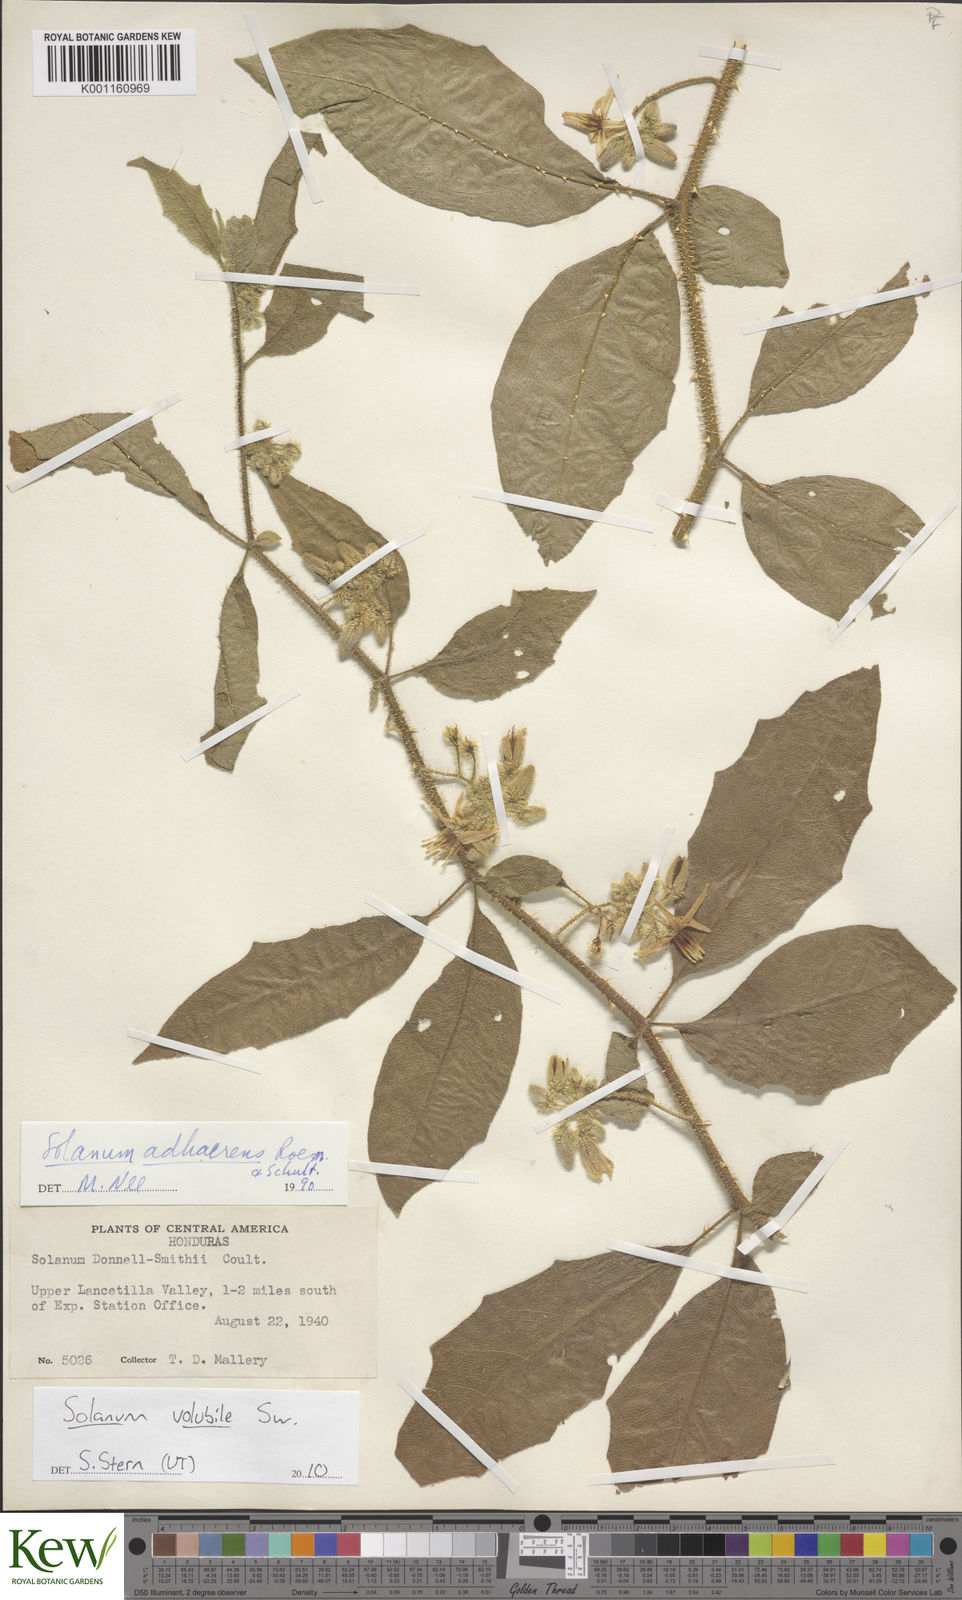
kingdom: Plantae
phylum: Tracheophyta
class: Magnoliopsida
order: Solanales
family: Solanaceae
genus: Solanum
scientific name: Solanum volubile
